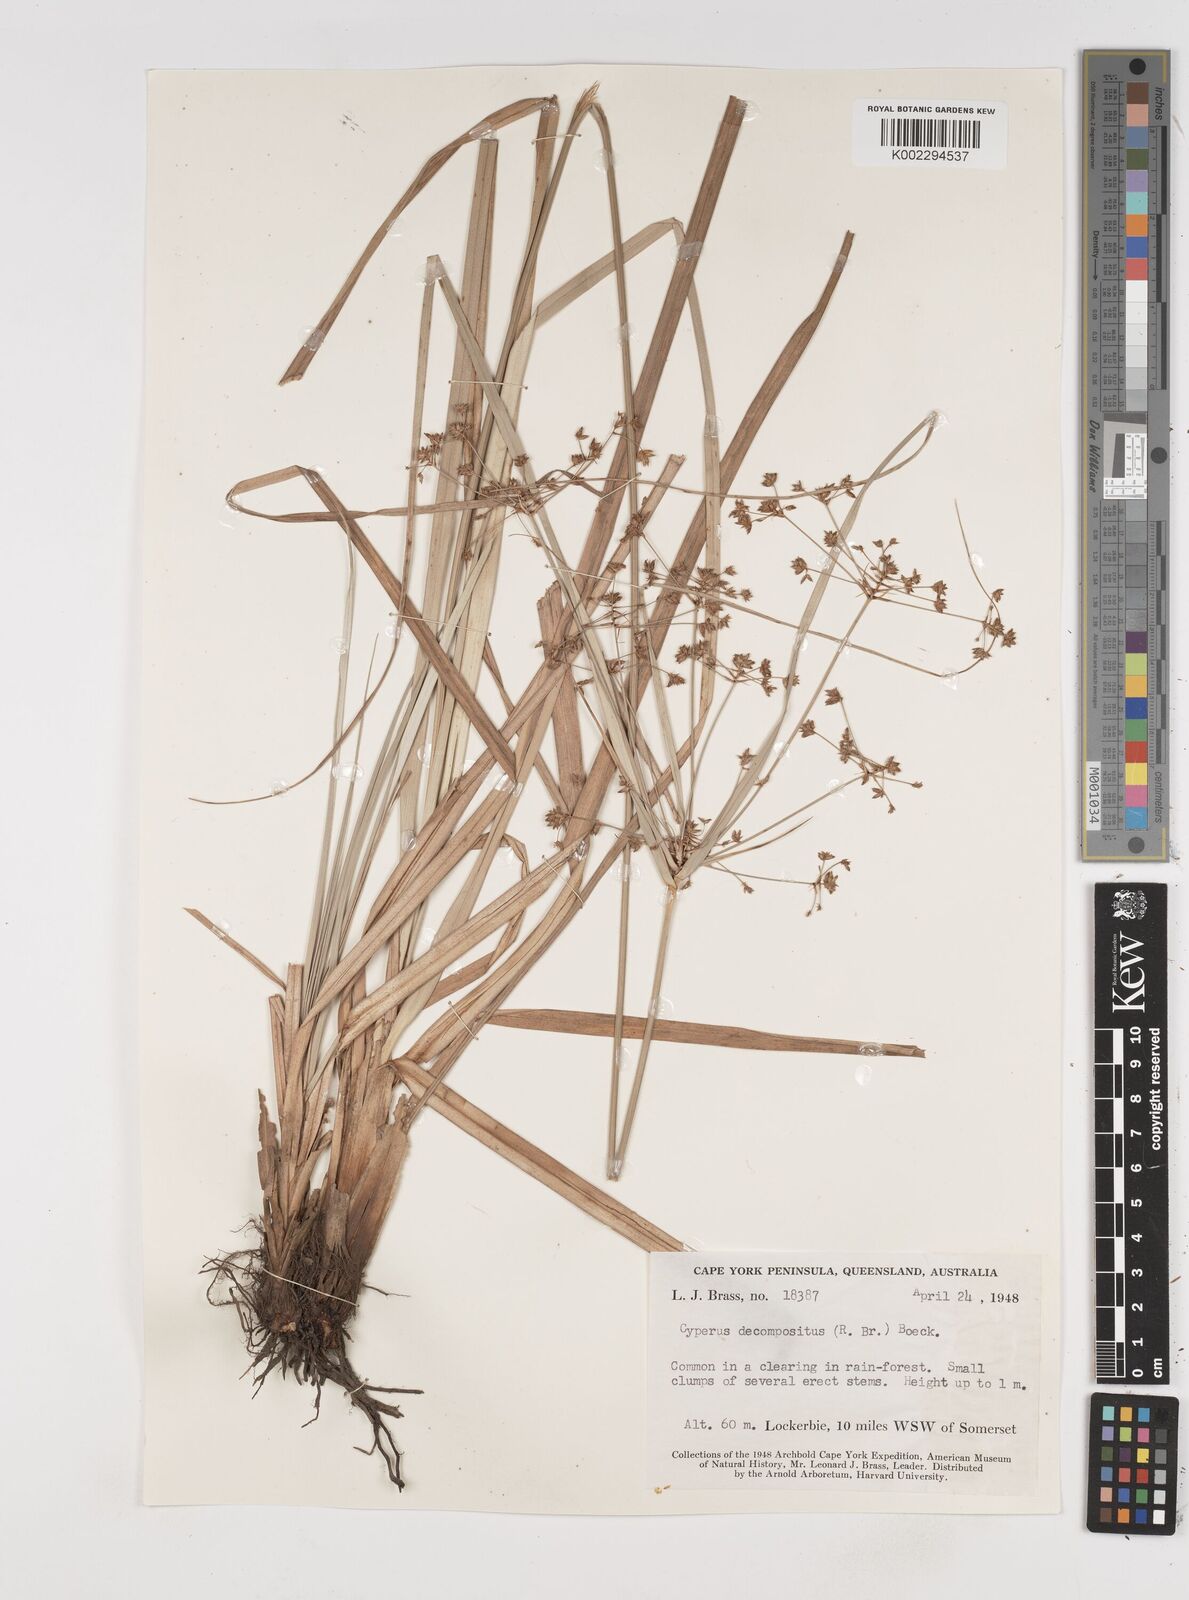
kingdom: Plantae
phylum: Tracheophyta
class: Liliopsida
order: Poales
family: Cyperaceae
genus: Cyperus
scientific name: Cyperus decompositus
